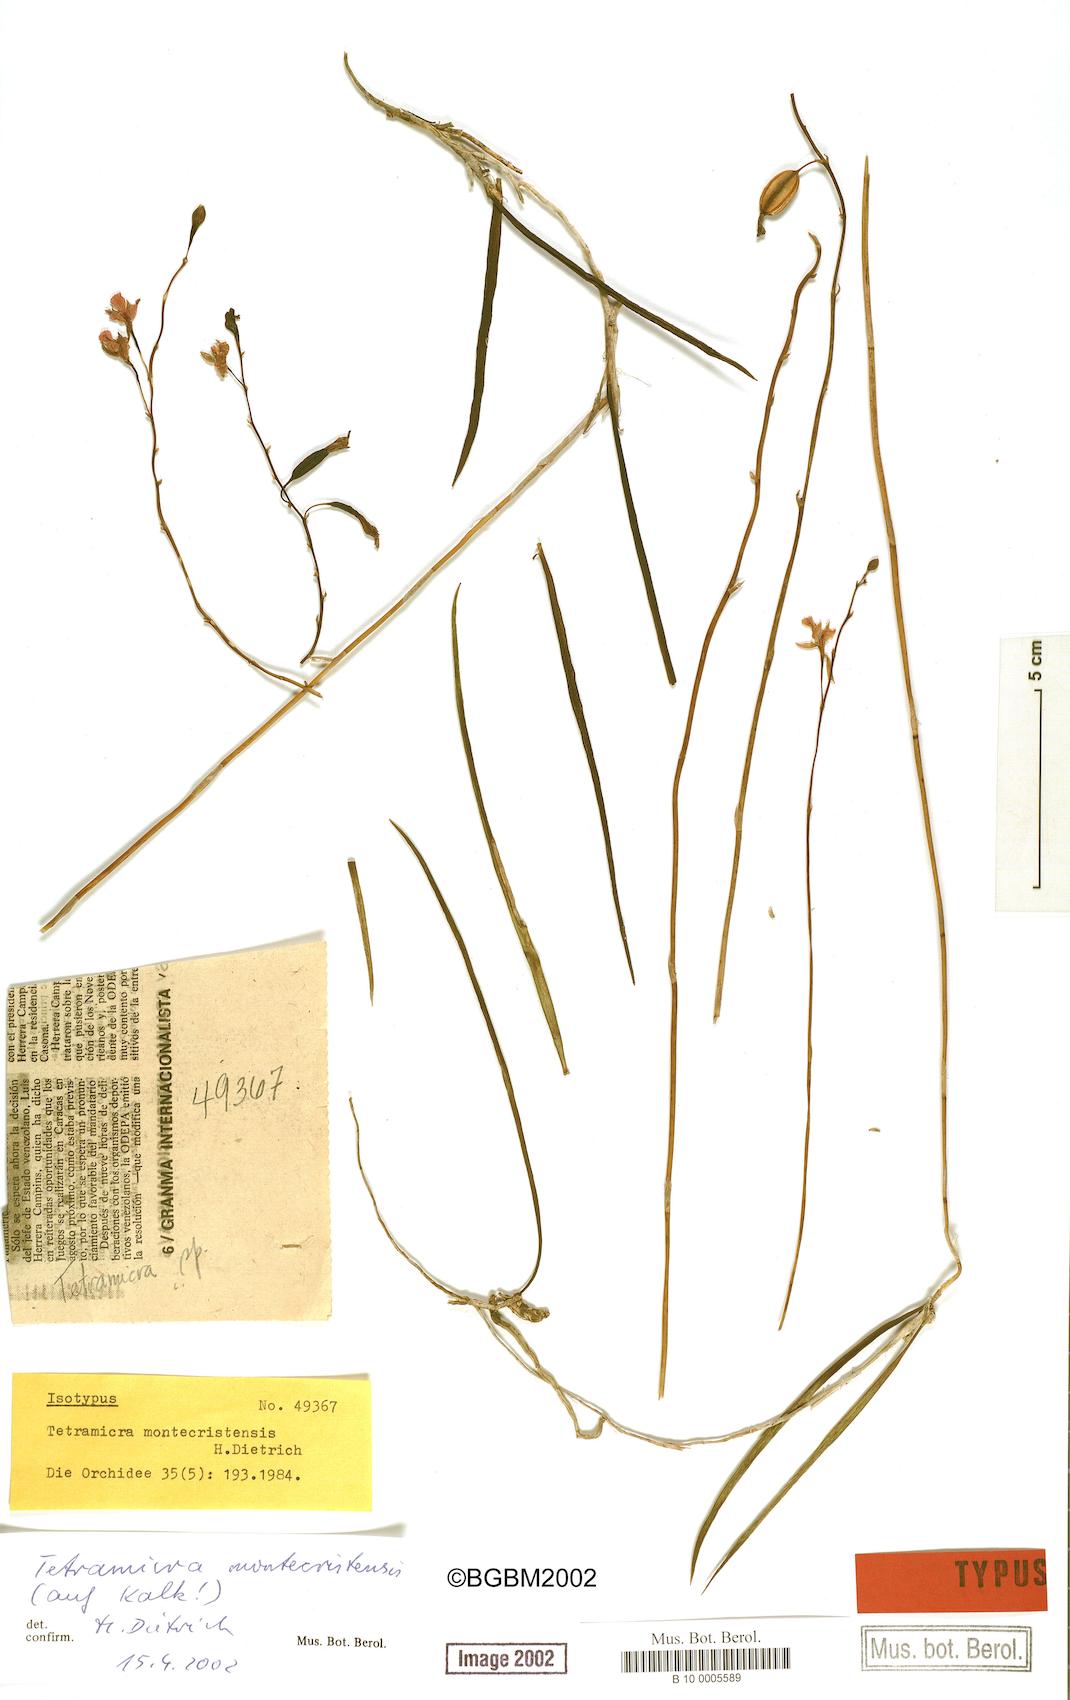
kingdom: Plantae
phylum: Tracheophyta
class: Liliopsida
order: Asparagales
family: Orchidaceae
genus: Tetramicra
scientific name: Tetramicra ekmanii
